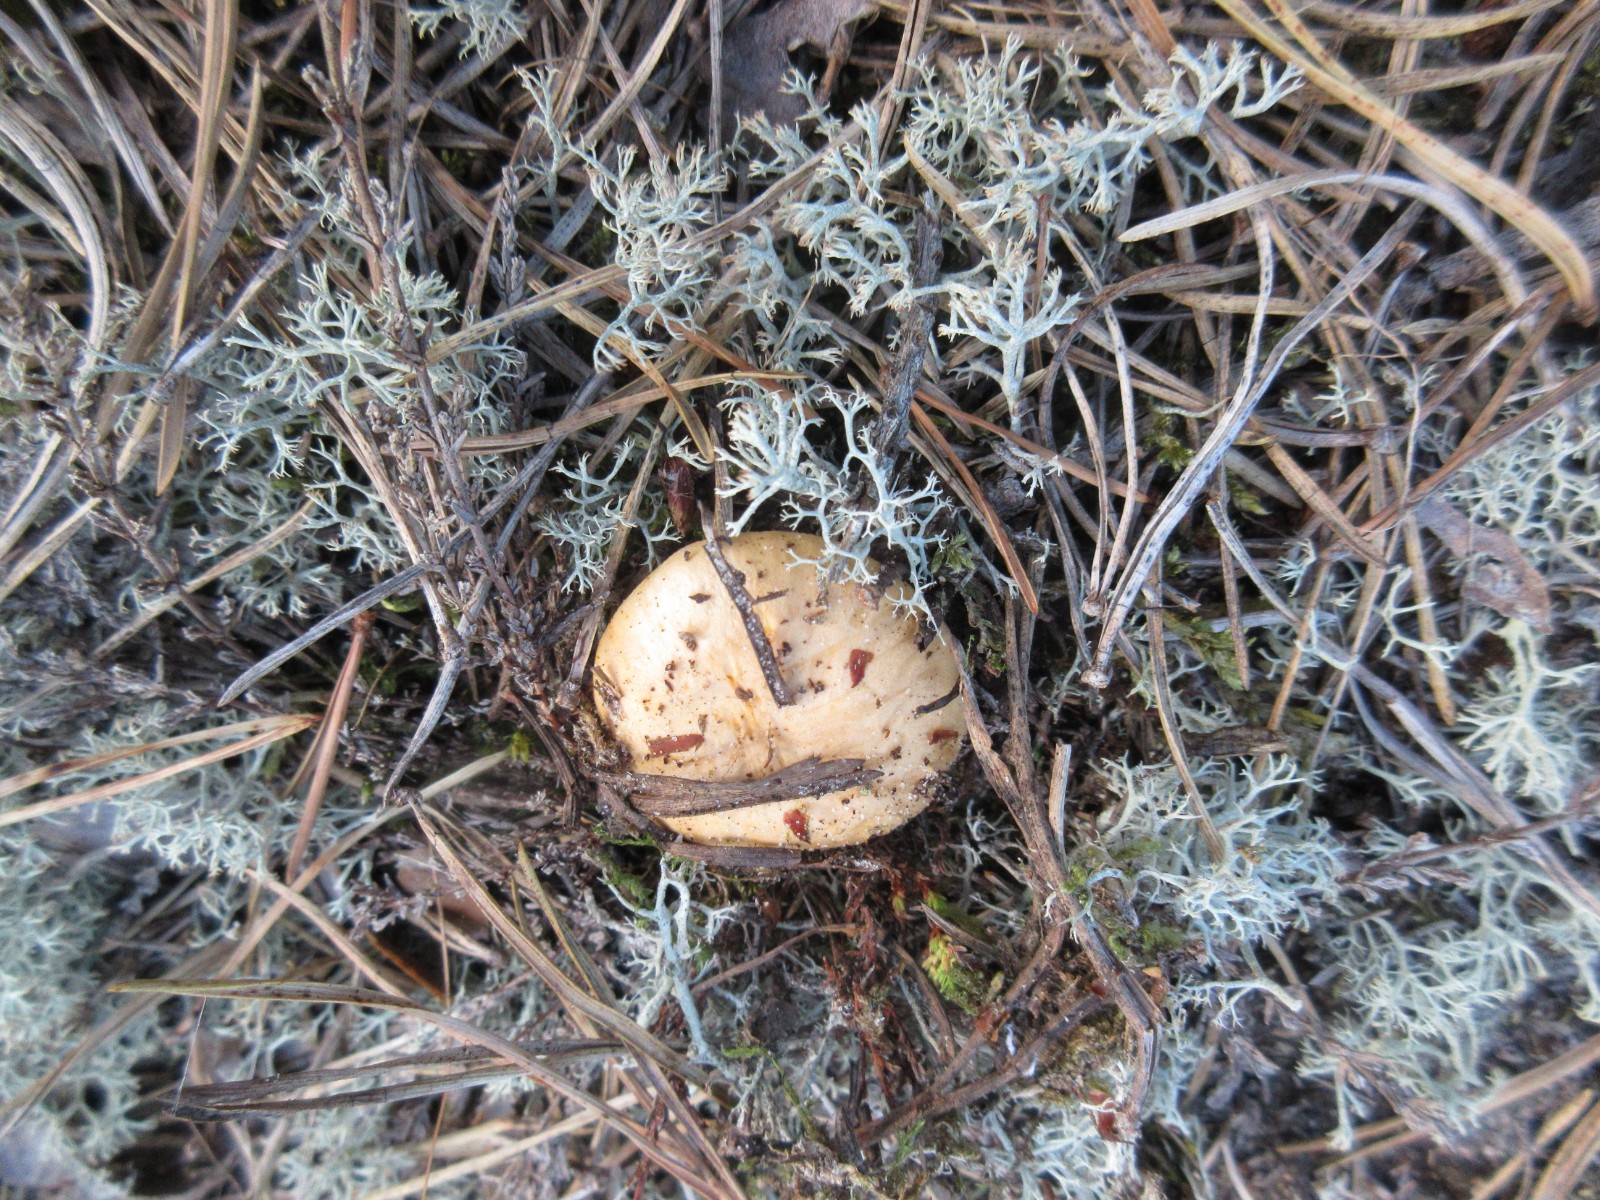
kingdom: Fungi
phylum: Basidiomycota
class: Agaricomycetes
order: Cantharellales
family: Hydnaceae
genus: Cantharellus
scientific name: Cantharellus cibarius
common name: almindelig kantarel
